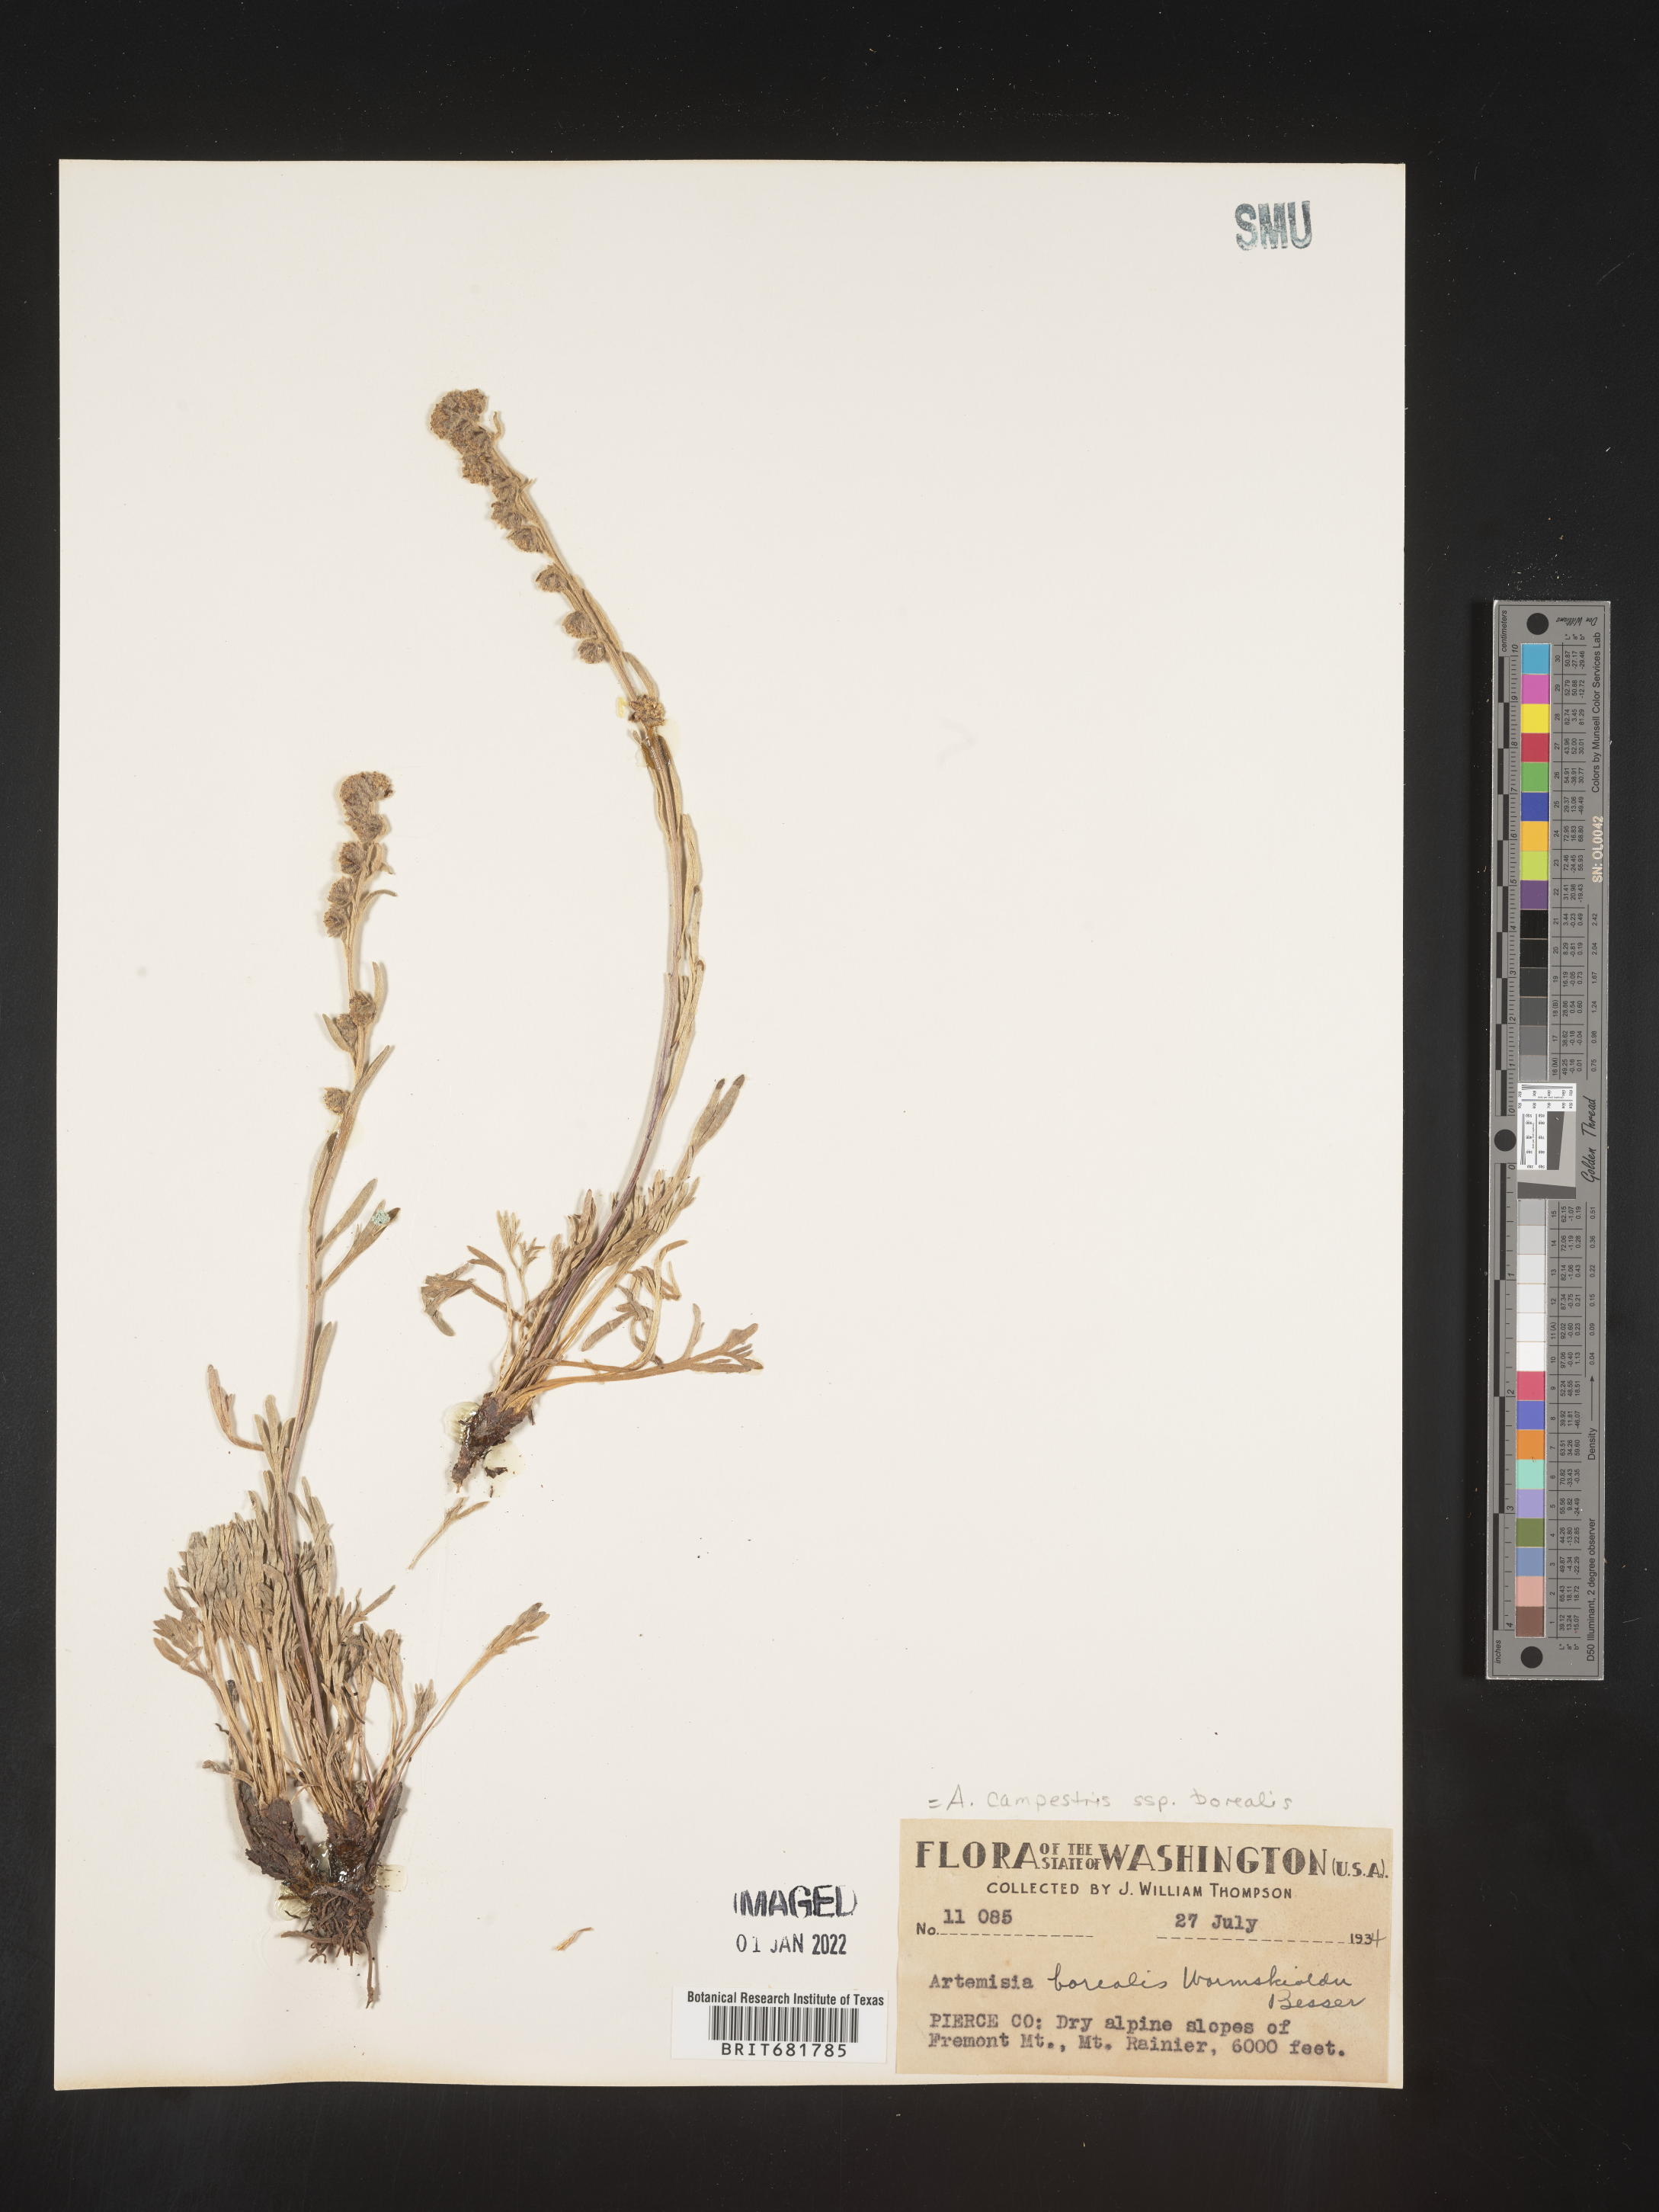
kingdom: Plantae
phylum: Tracheophyta
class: Magnoliopsida
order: Asterales
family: Asteraceae
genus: Artemisia
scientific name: Artemisia campestris
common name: Field wormwood
